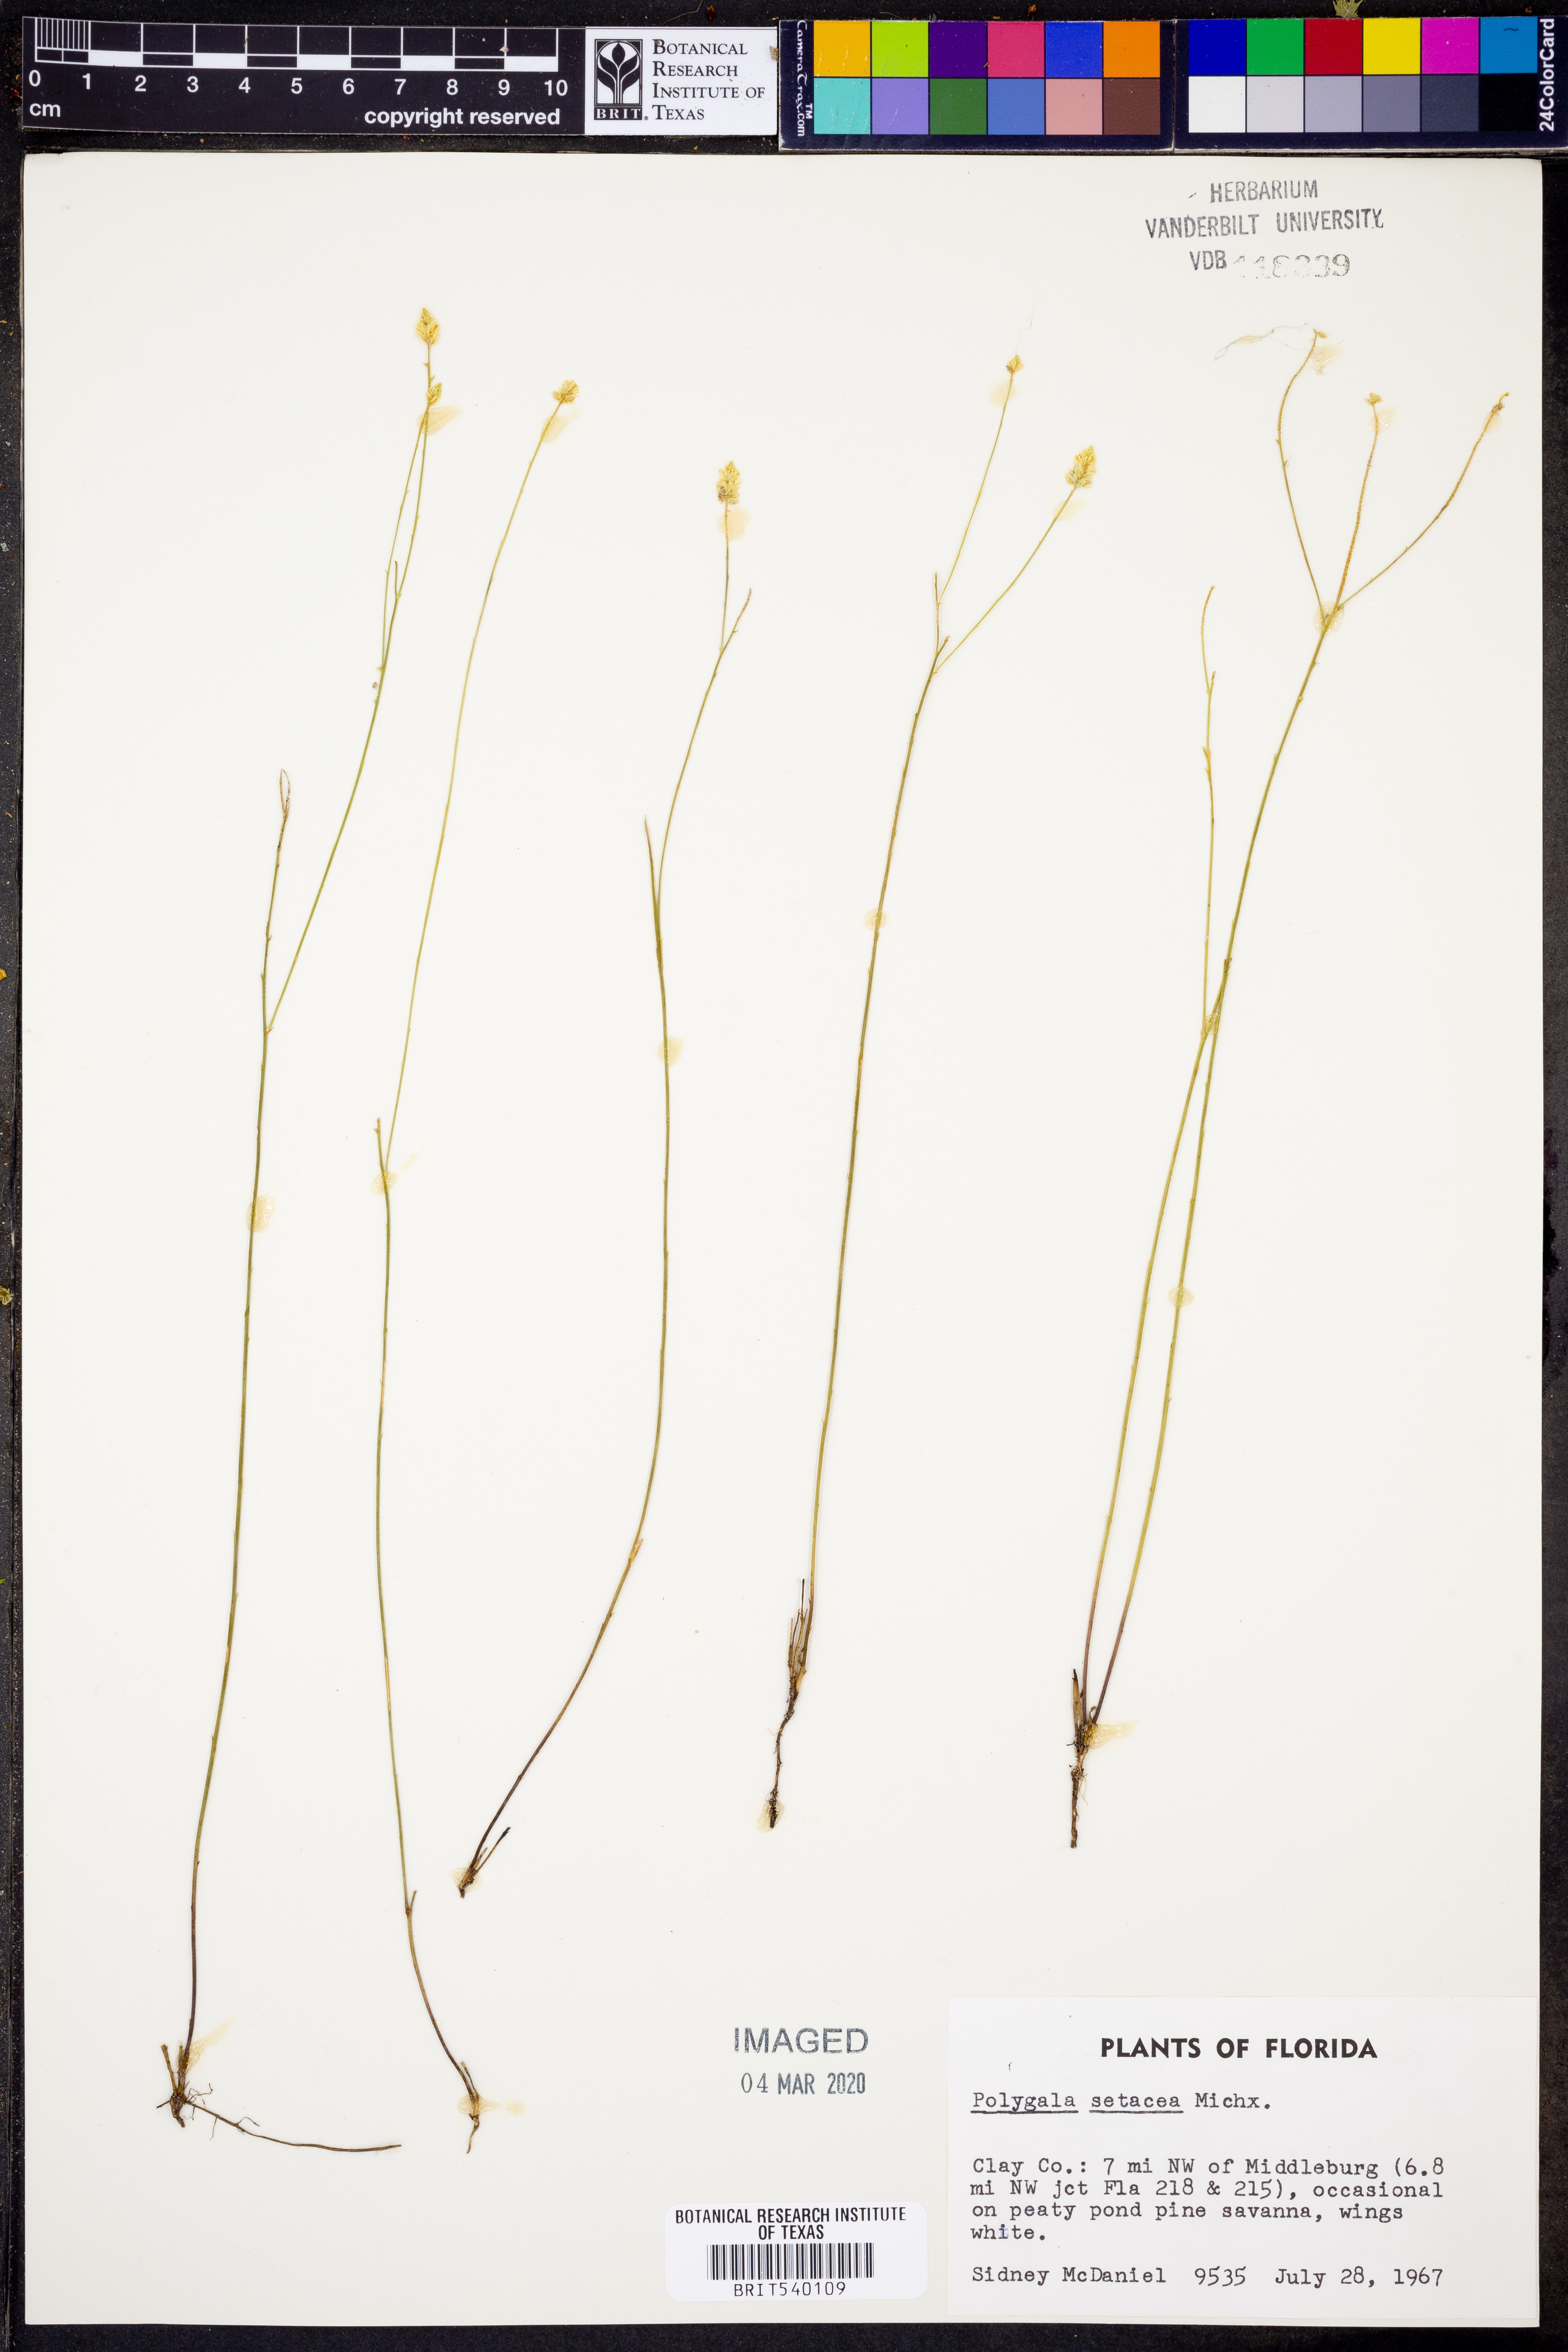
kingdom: Plantae
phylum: Tracheophyta
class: Magnoliopsida
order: Fabales
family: Polygalaceae
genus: Polygala
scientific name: Polygala setacea
